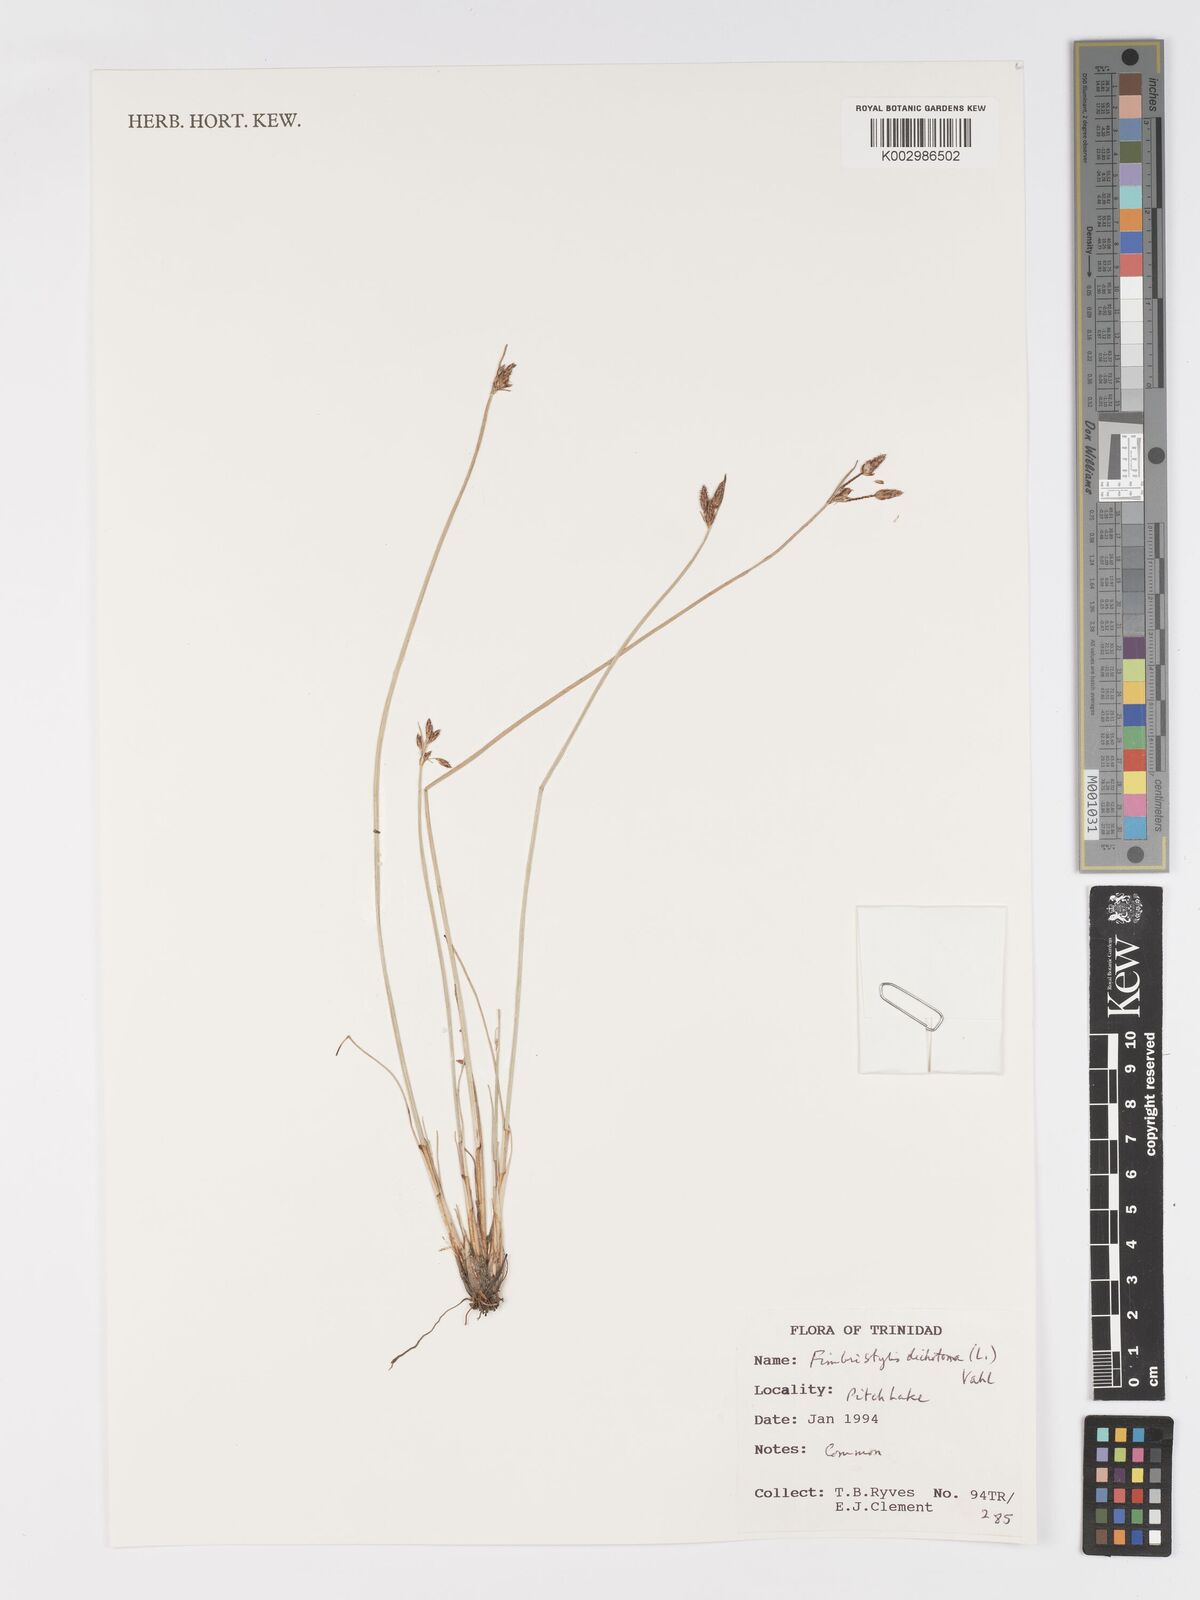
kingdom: Plantae
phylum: Tracheophyta
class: Liliopsida
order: Poales
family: Cyperaceae
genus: Fimbristylis
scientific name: Fimbristylis dichotoma
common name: Forked fimbry
